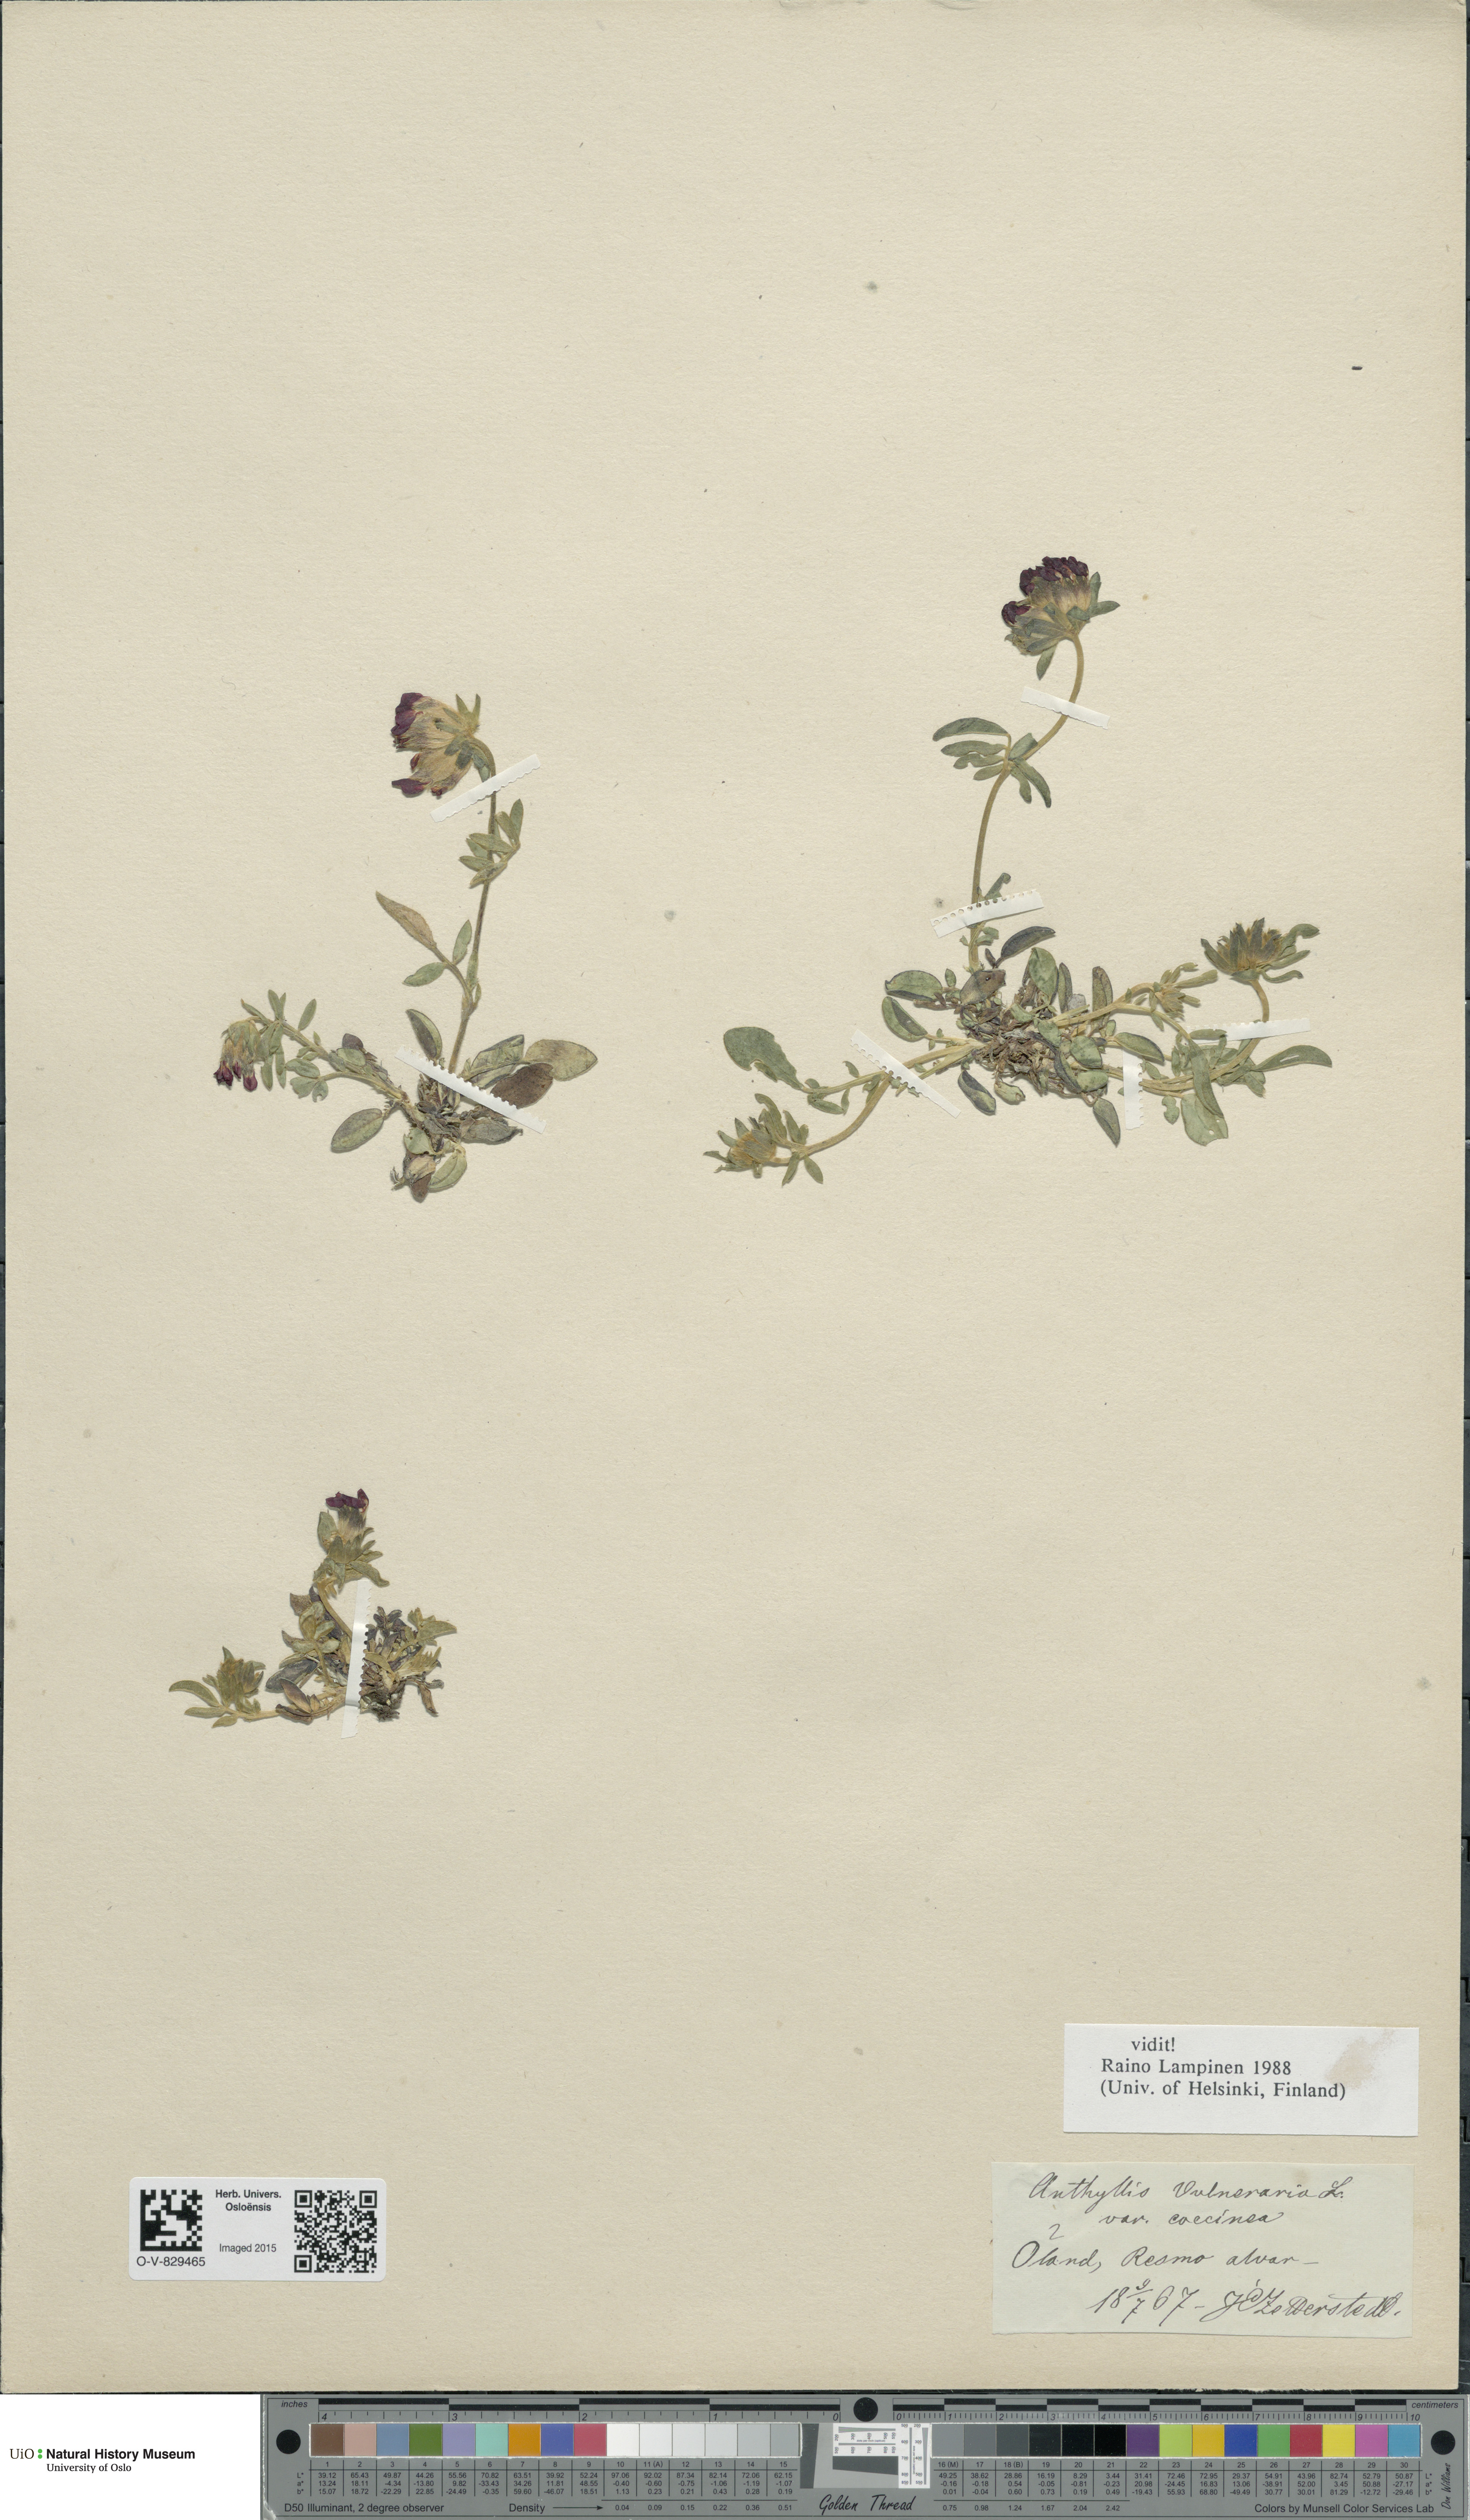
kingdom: Plantae
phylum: Tracheophyta
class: Magnoliopsida
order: Fabales
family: Fabaceae
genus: Anthyllis
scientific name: Anthyllis vulneraria
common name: Kidney vetch
